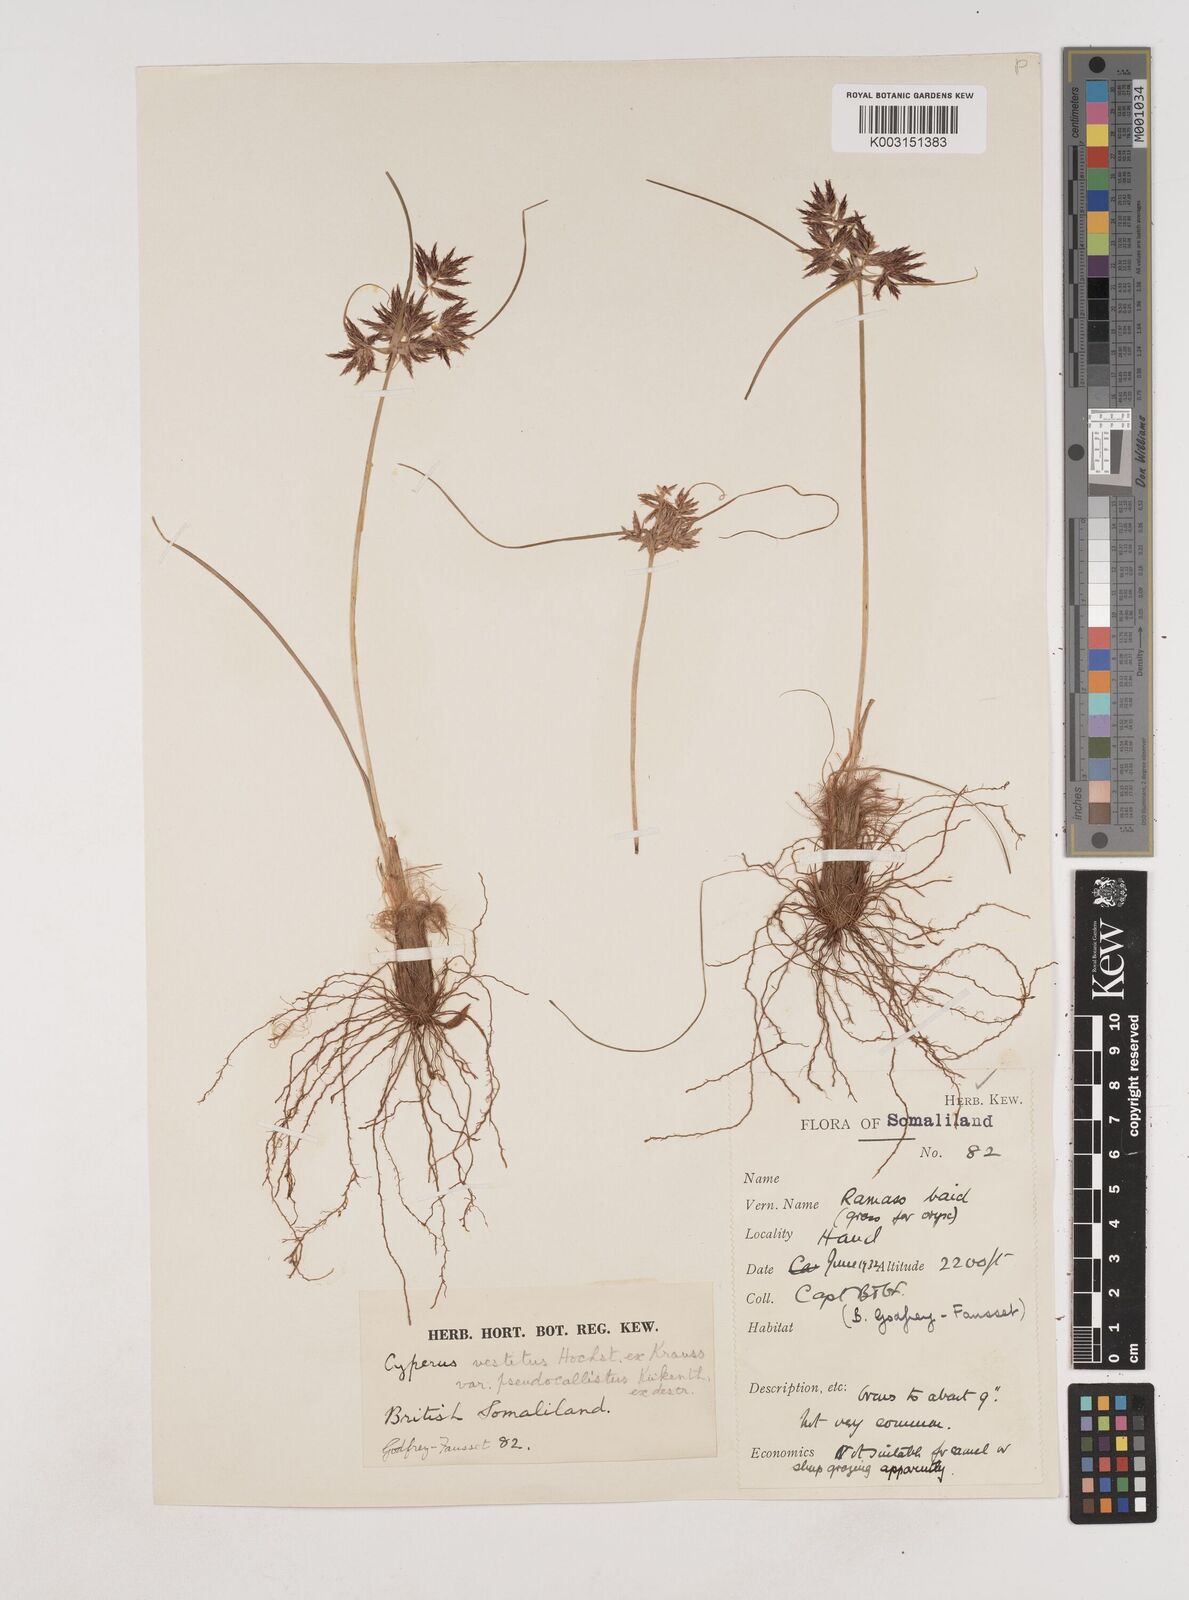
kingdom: Plantae
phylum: Tracheophyta
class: Liliopsida
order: Poales
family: Cyperaceae
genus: Cyperus
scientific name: Cyperus vestitus
